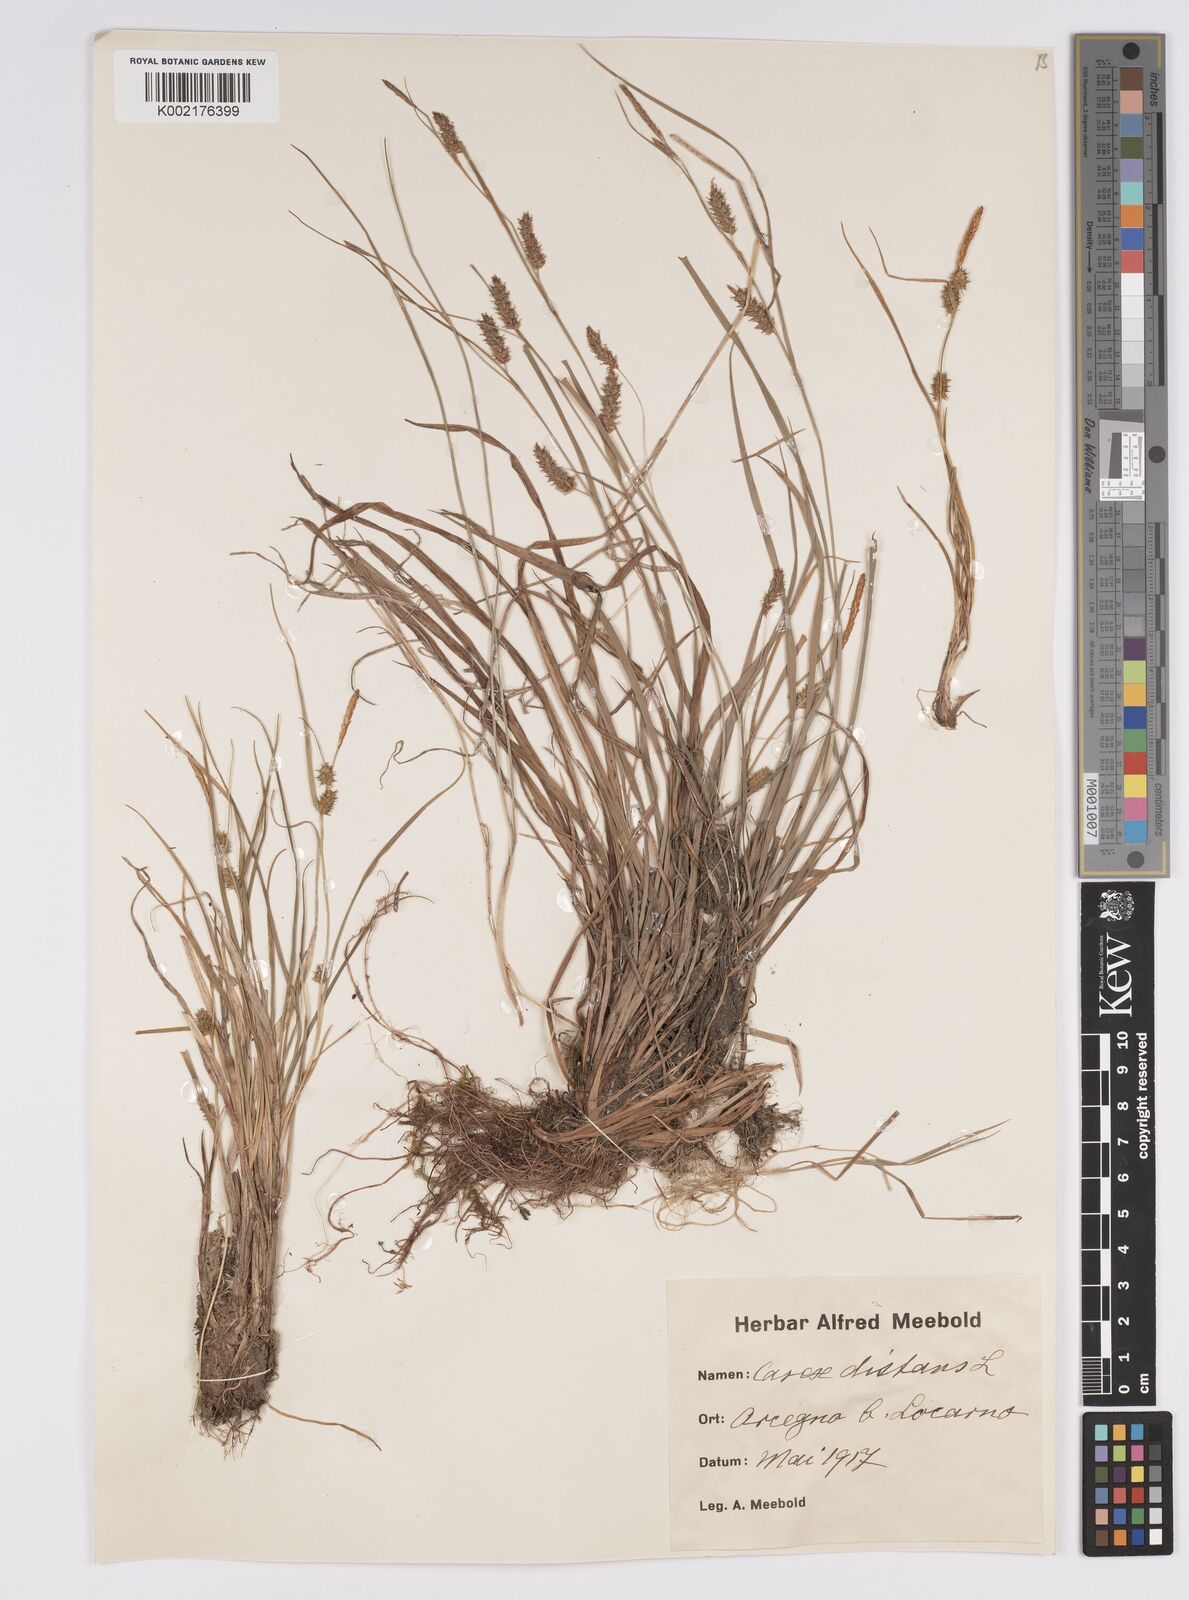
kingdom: Plantae
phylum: Tracheophyta
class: Liliopsida
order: Poales
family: Cyperaceae
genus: Carex
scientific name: Carex distans
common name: Distant sedge
